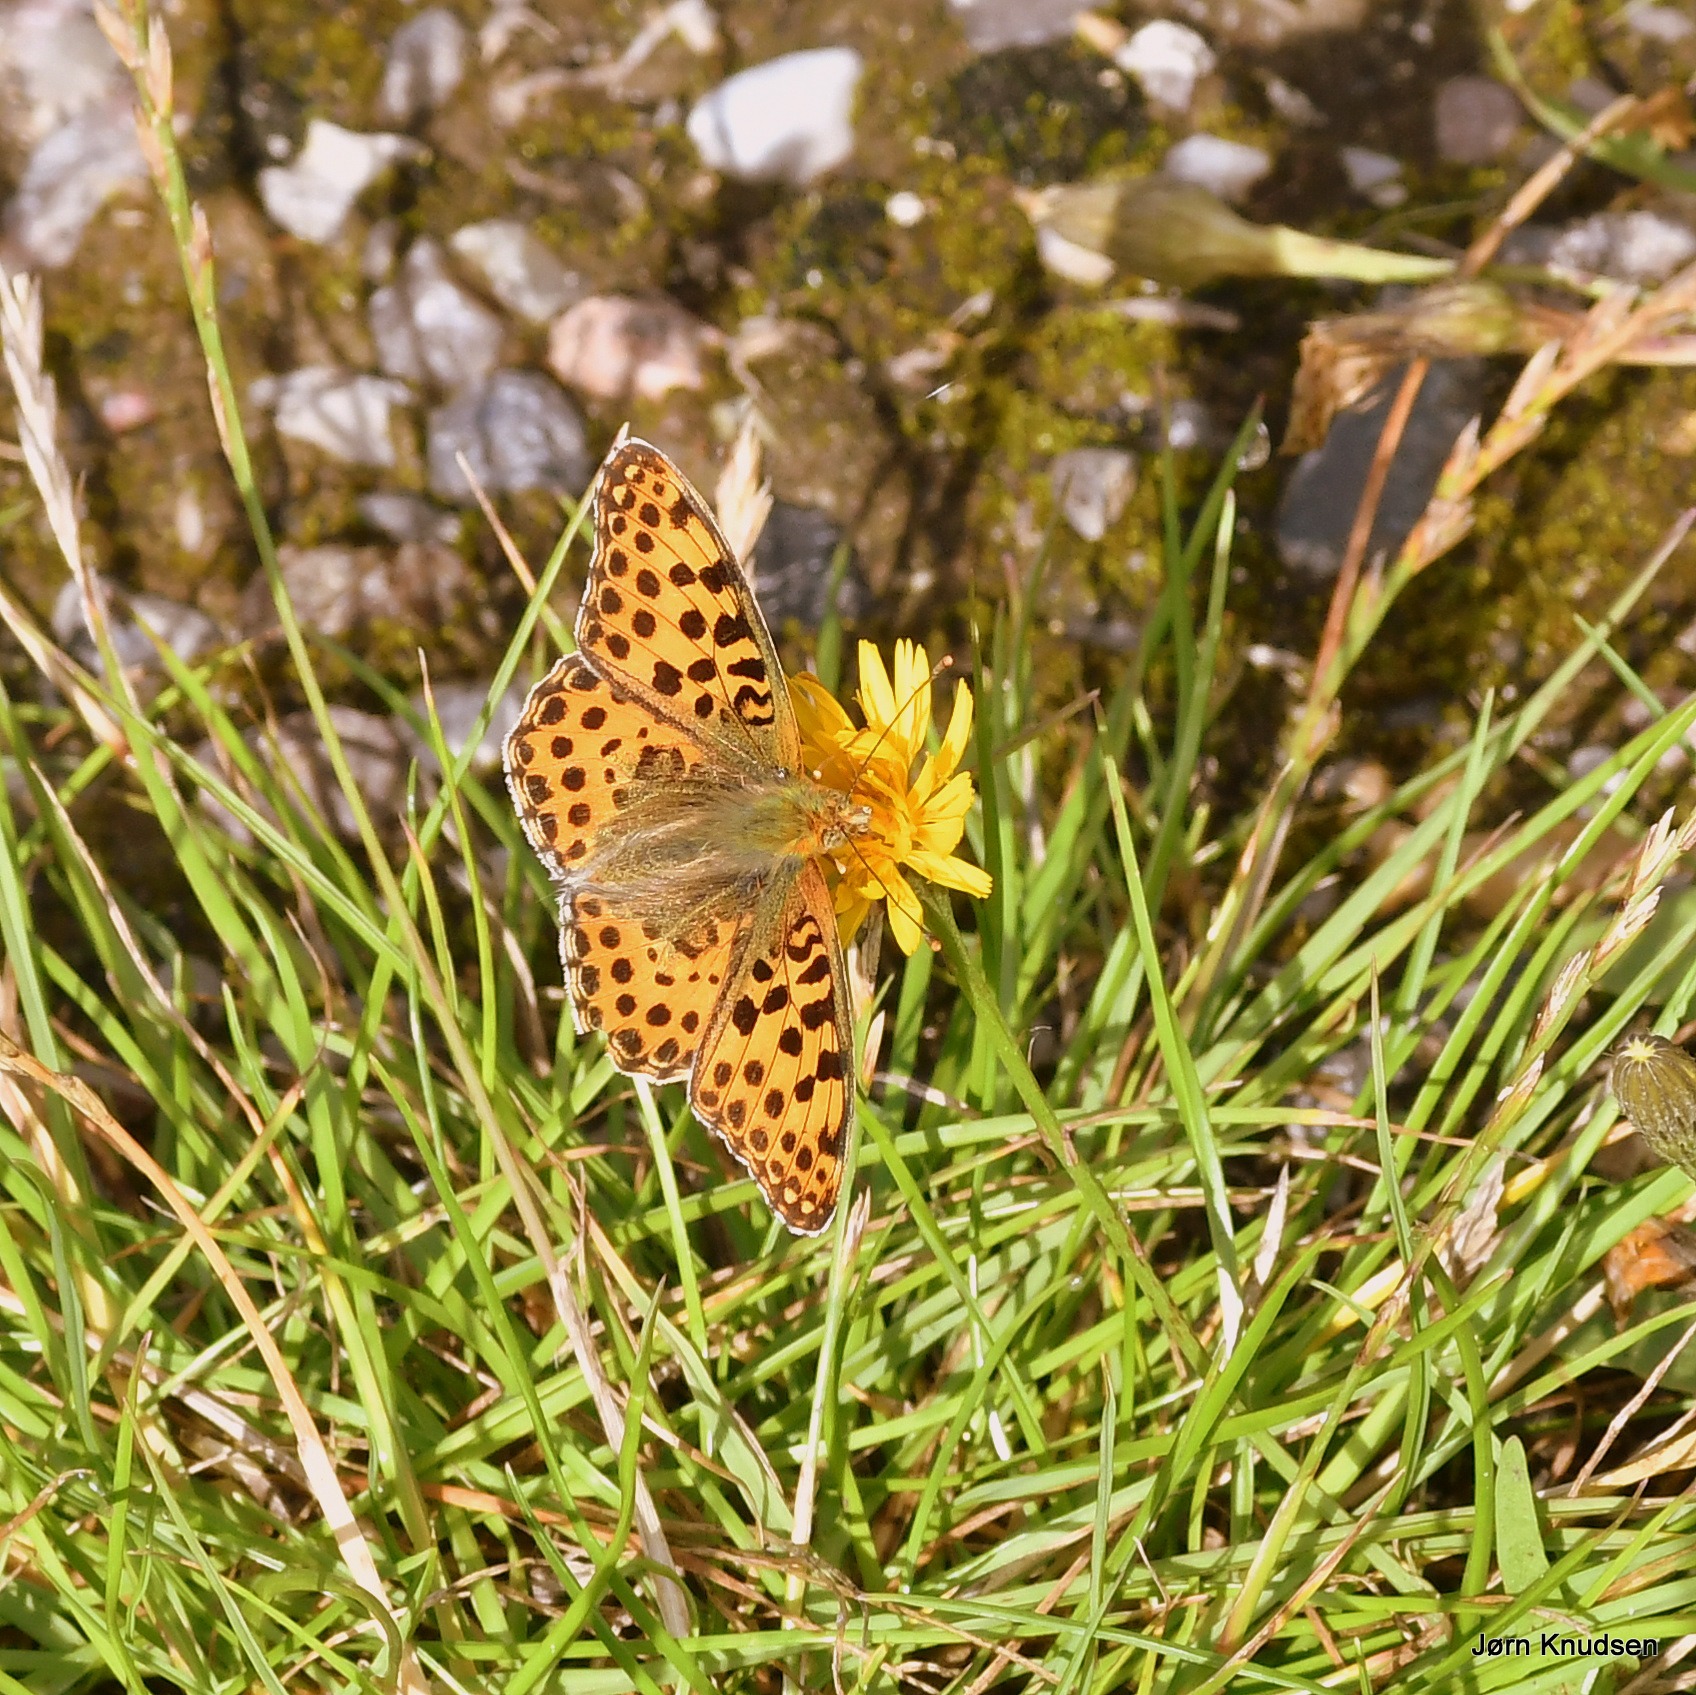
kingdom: Animalia
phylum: Arthropoda
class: Insecta
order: Lepidoptera
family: Nymphalidae
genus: Issoria
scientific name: Issoria lathonia
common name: Storplettet perlemorsommerfugl
